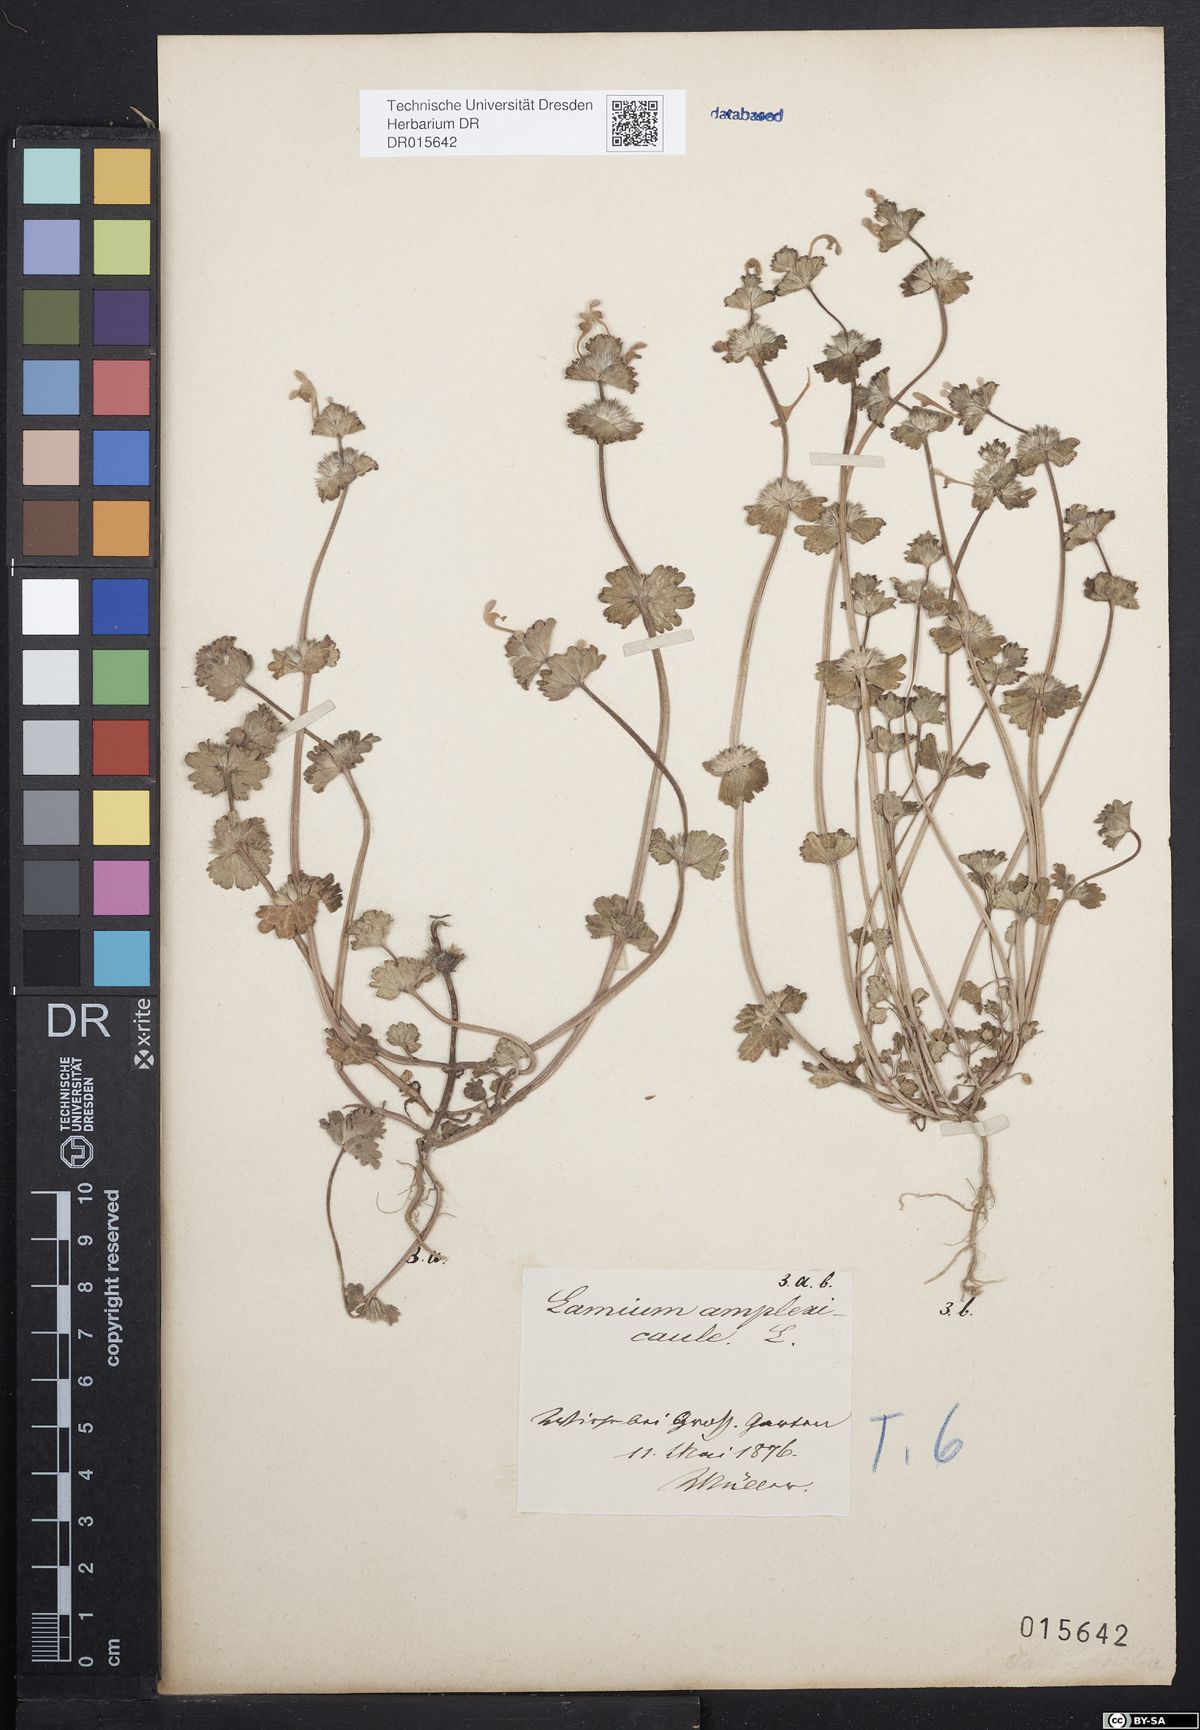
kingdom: Plantae
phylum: Tracheophyta
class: Magnoliopsida
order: Lamiales
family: Lamiaceae
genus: Lamium
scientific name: Lamium amplexicaule
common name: Henbit dead-nettle
